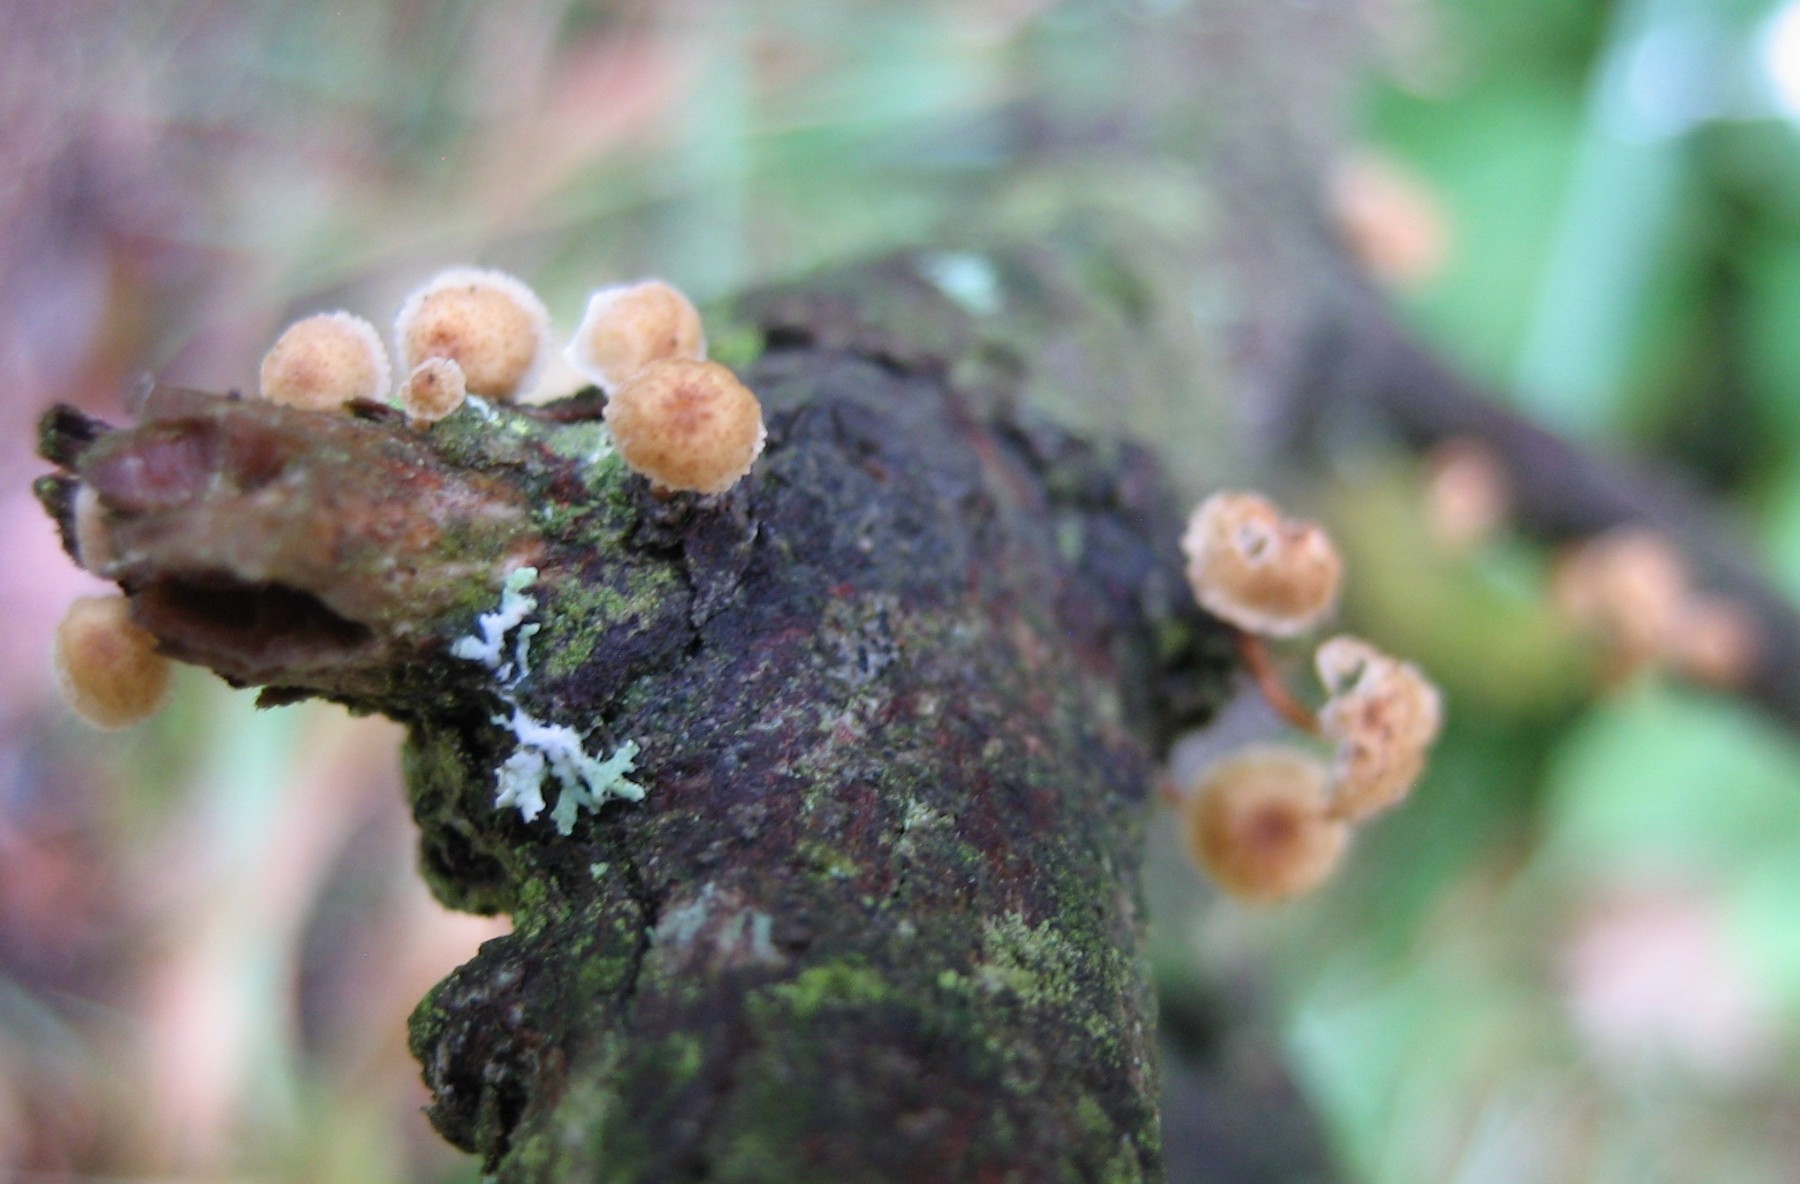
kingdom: Fungi
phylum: Basidiomycota
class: Agaricomycetes
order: Agaricales
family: Mycenaceae
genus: Mycena
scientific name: Mycena juniperina
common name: ene-Huesvamp
